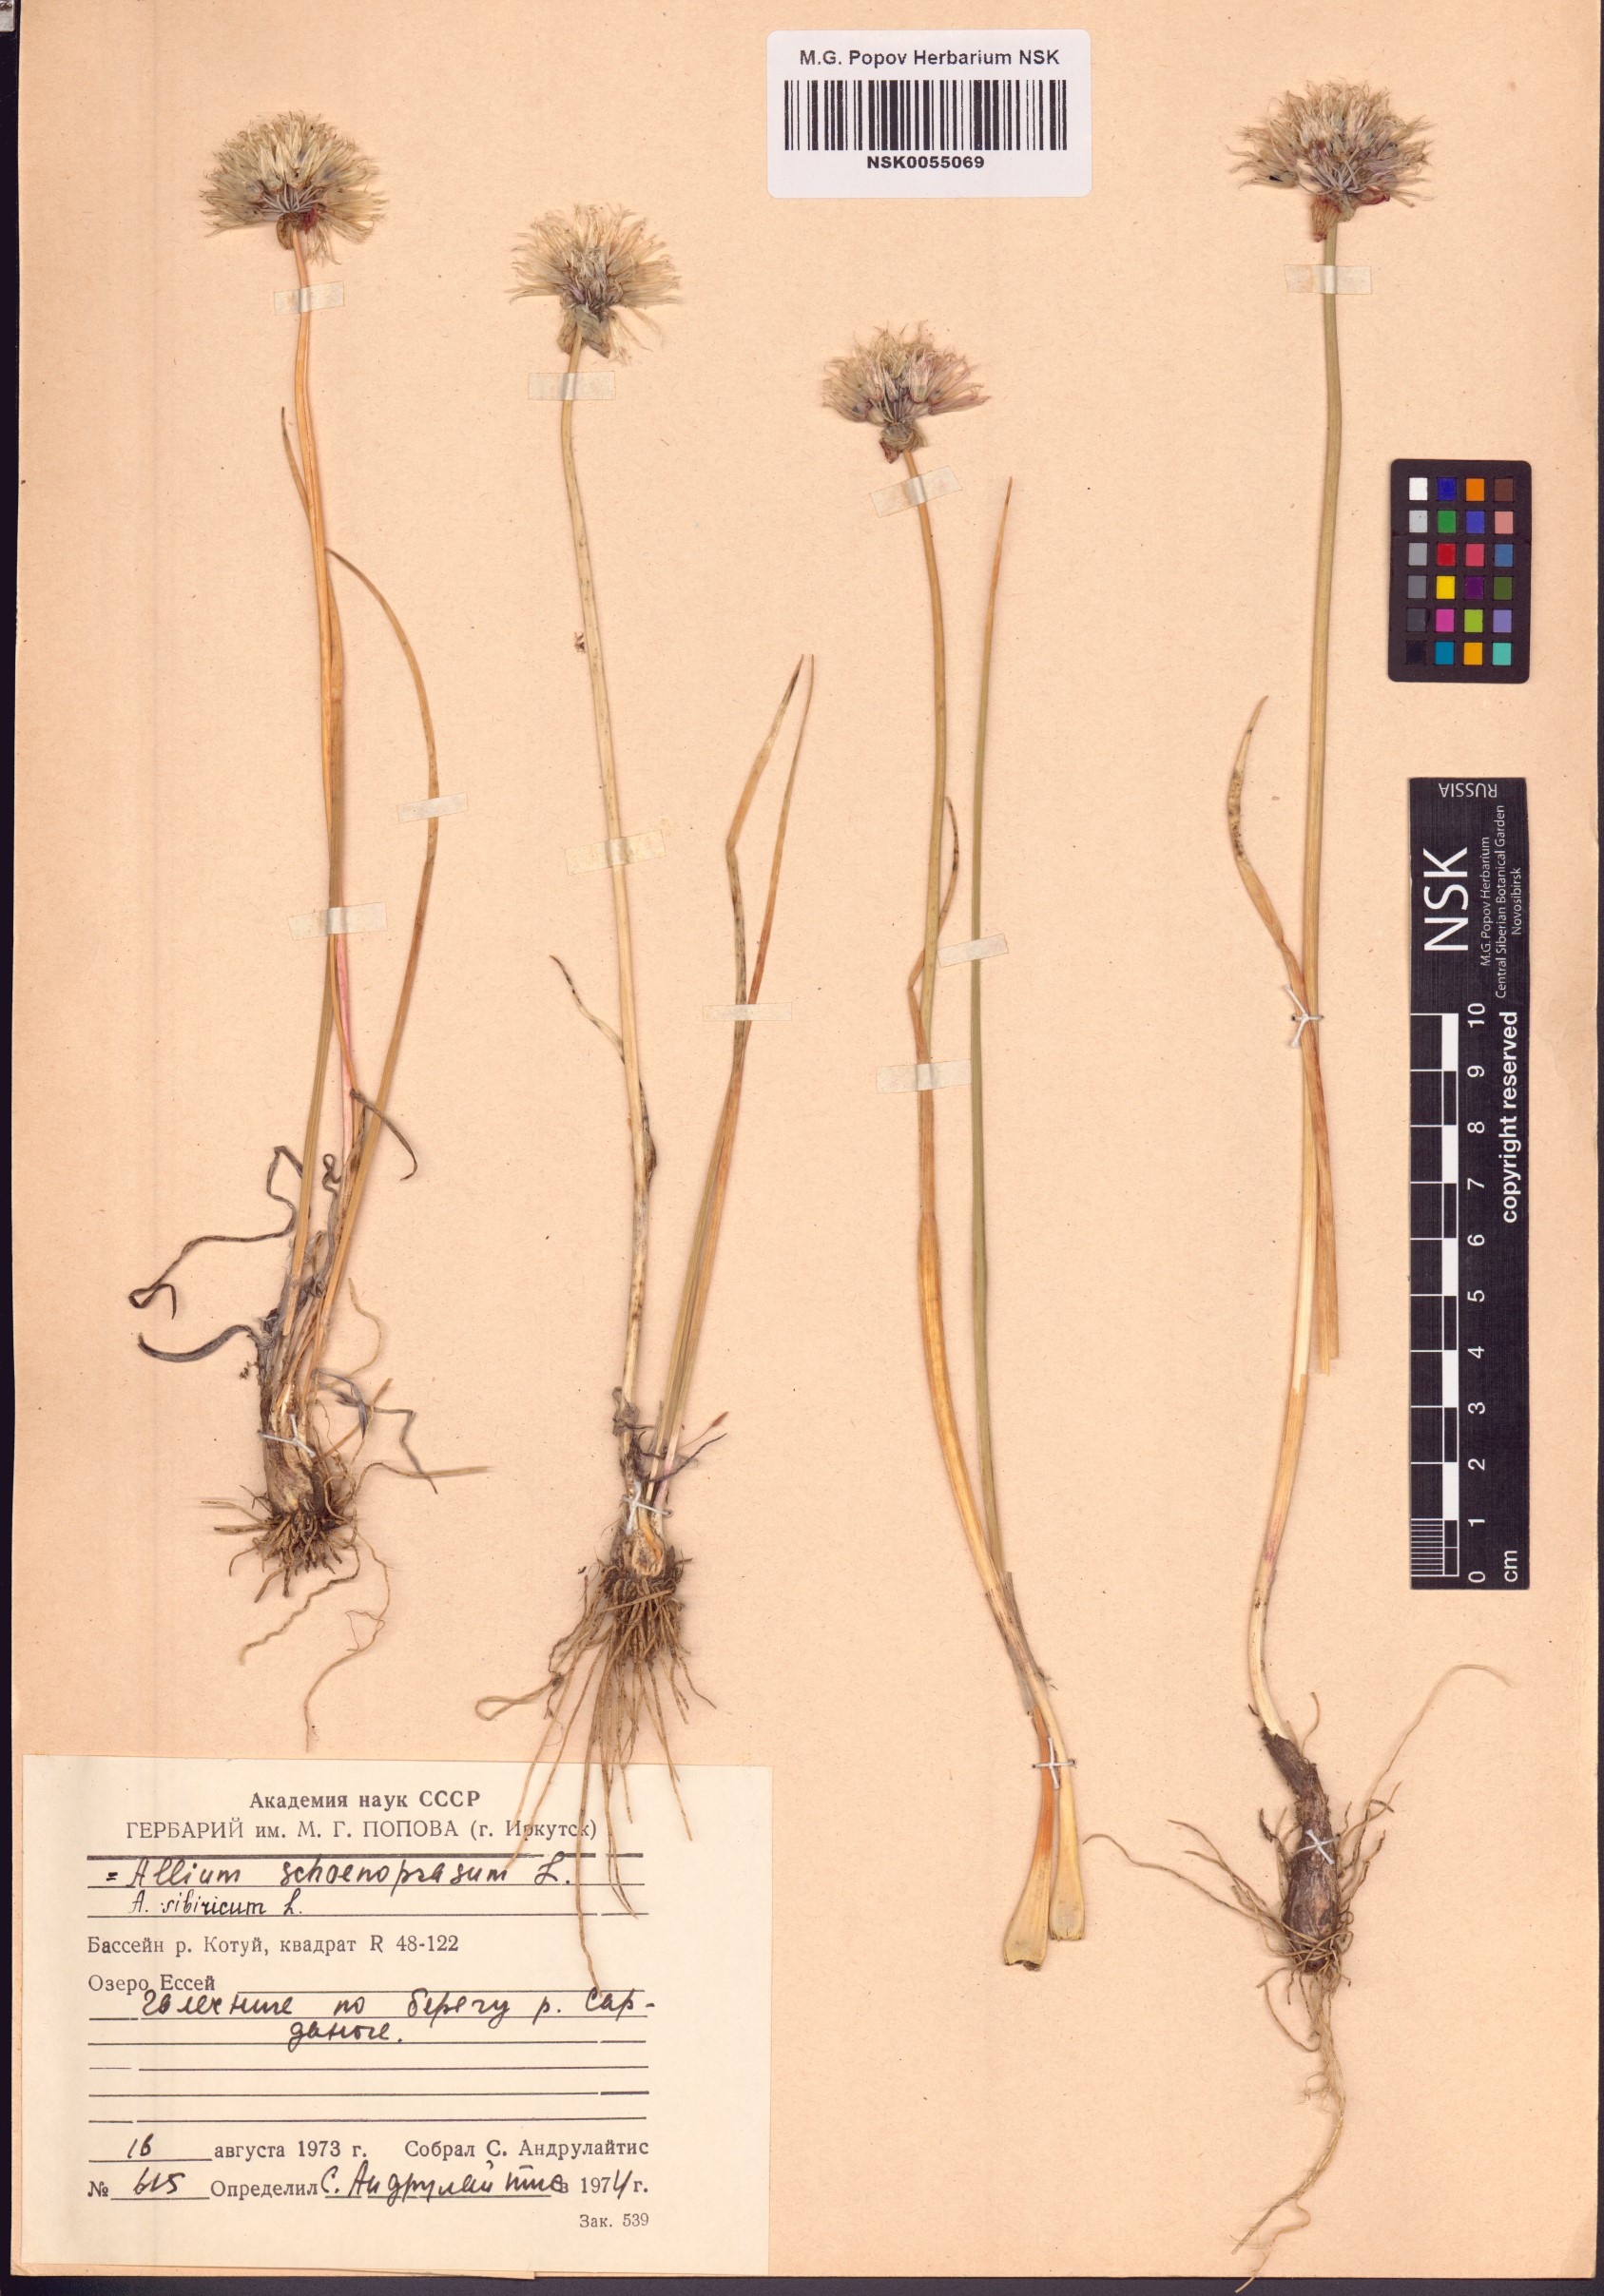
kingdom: Plantae
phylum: Tracheophyta
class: Liliopsida
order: Asparagales
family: Amaryllidaceae
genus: Allium
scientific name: Allium schoenoprasum
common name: Chives
